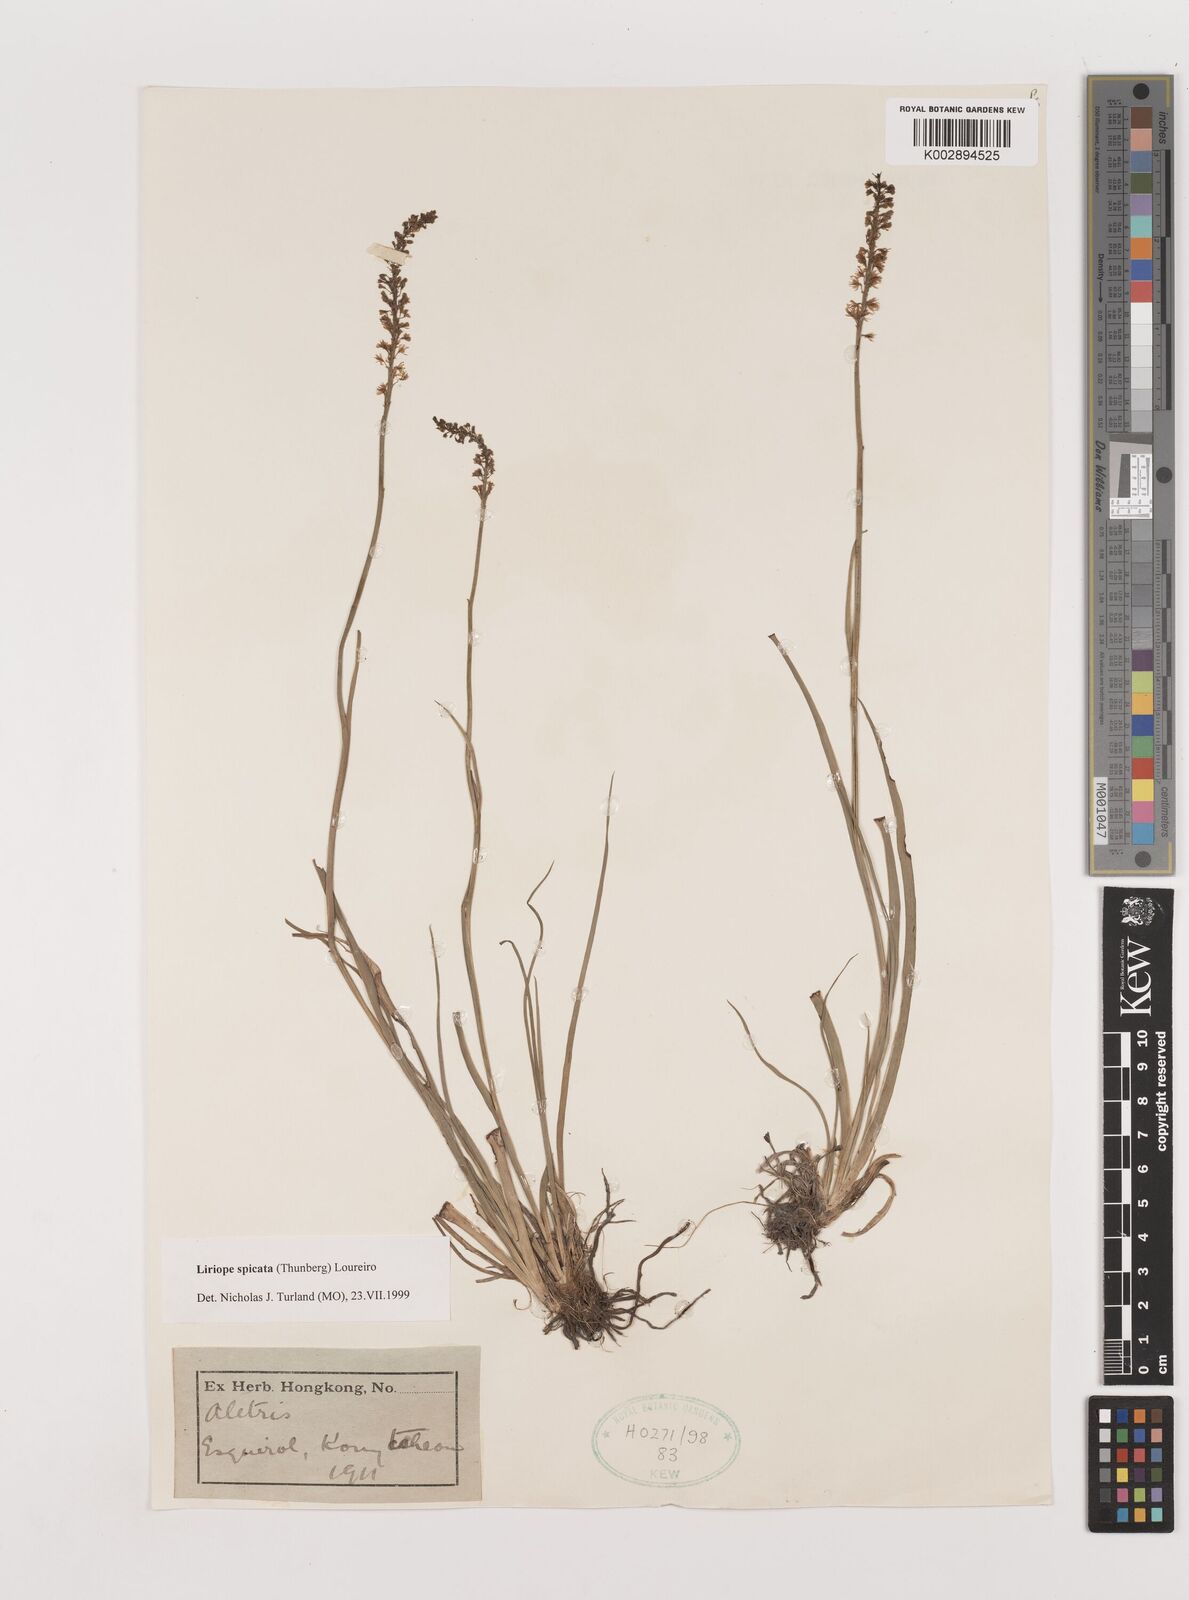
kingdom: Plantae
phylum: Tracheophyta
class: Liliopsida
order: Asparagales
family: Asparagaceae
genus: Liriope
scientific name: Liriope spicata
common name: Creeping liriope
